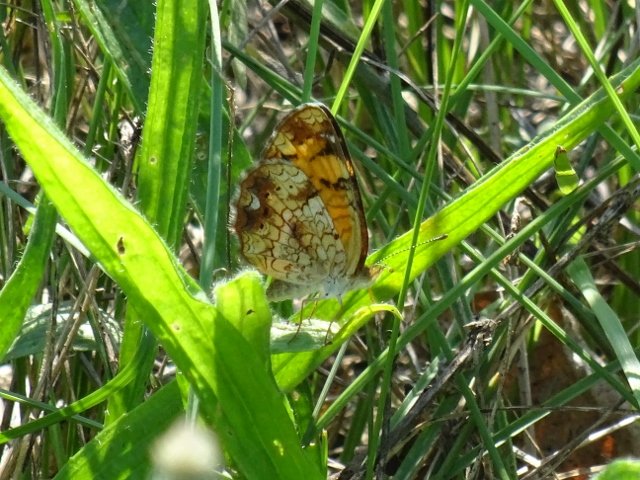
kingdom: Animalia
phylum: Arthropoda
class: Insecta
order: Lepidoptera
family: Nymphalidae
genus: Phyciodes
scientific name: Phyciodes tharos
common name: Pearl Crescent
